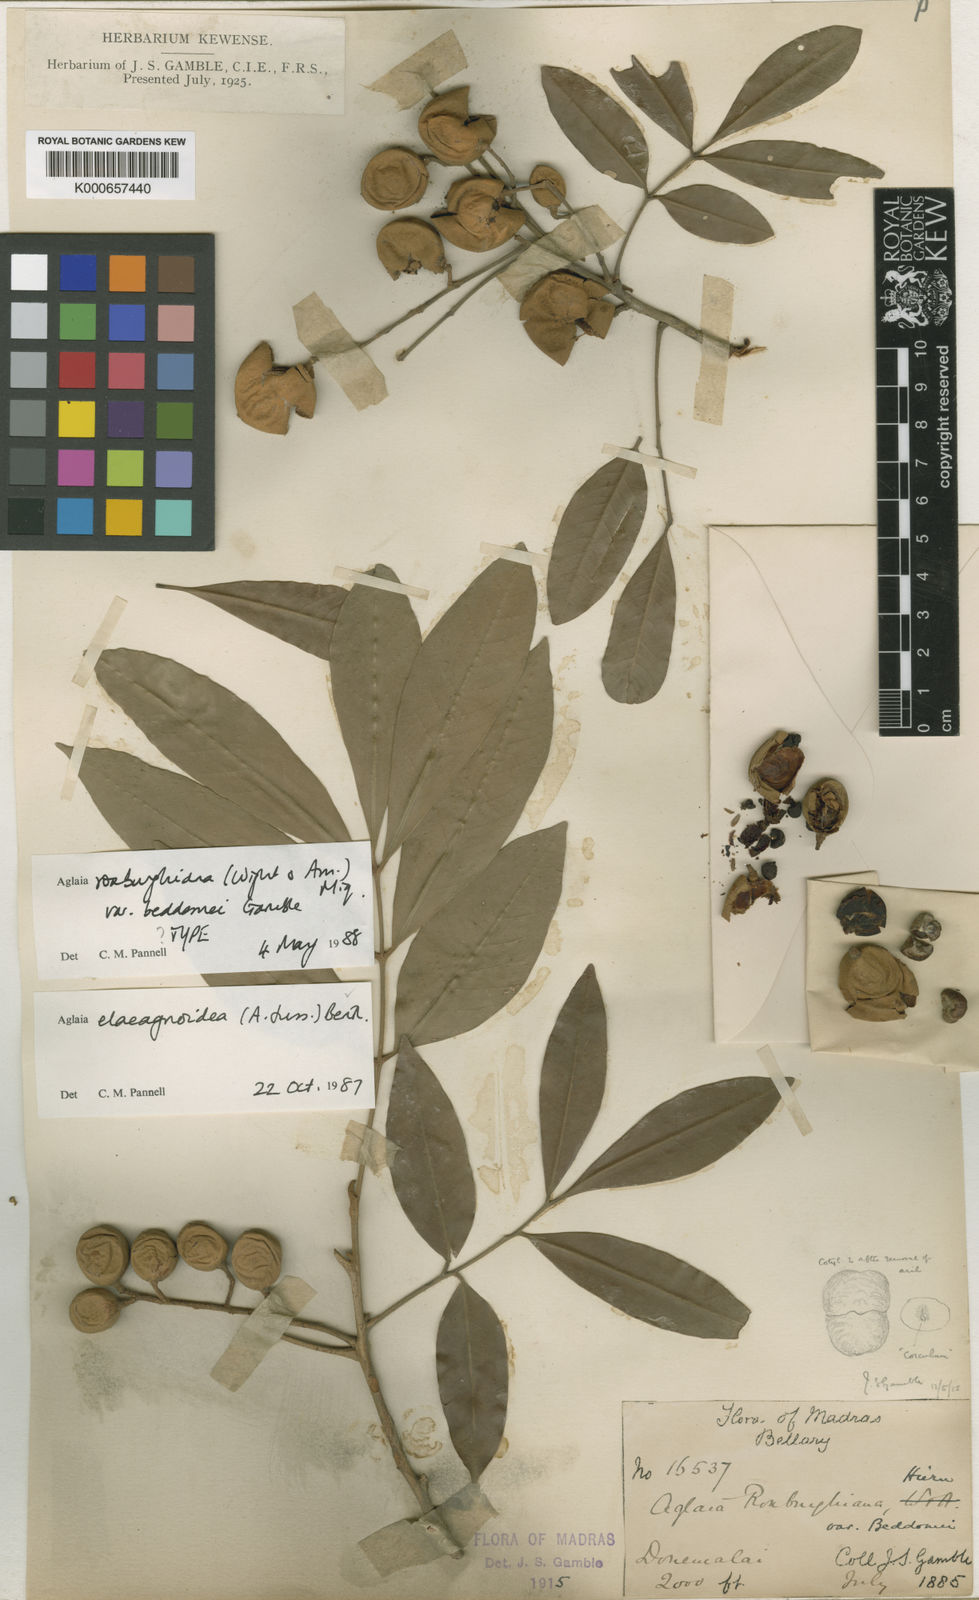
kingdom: Plantae
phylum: Tracheophyta
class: Magnoliopsida
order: Sapindales
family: Meliaceae
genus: Aglaia
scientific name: Aglaia elaeagnoidea
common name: Droopyleaf
